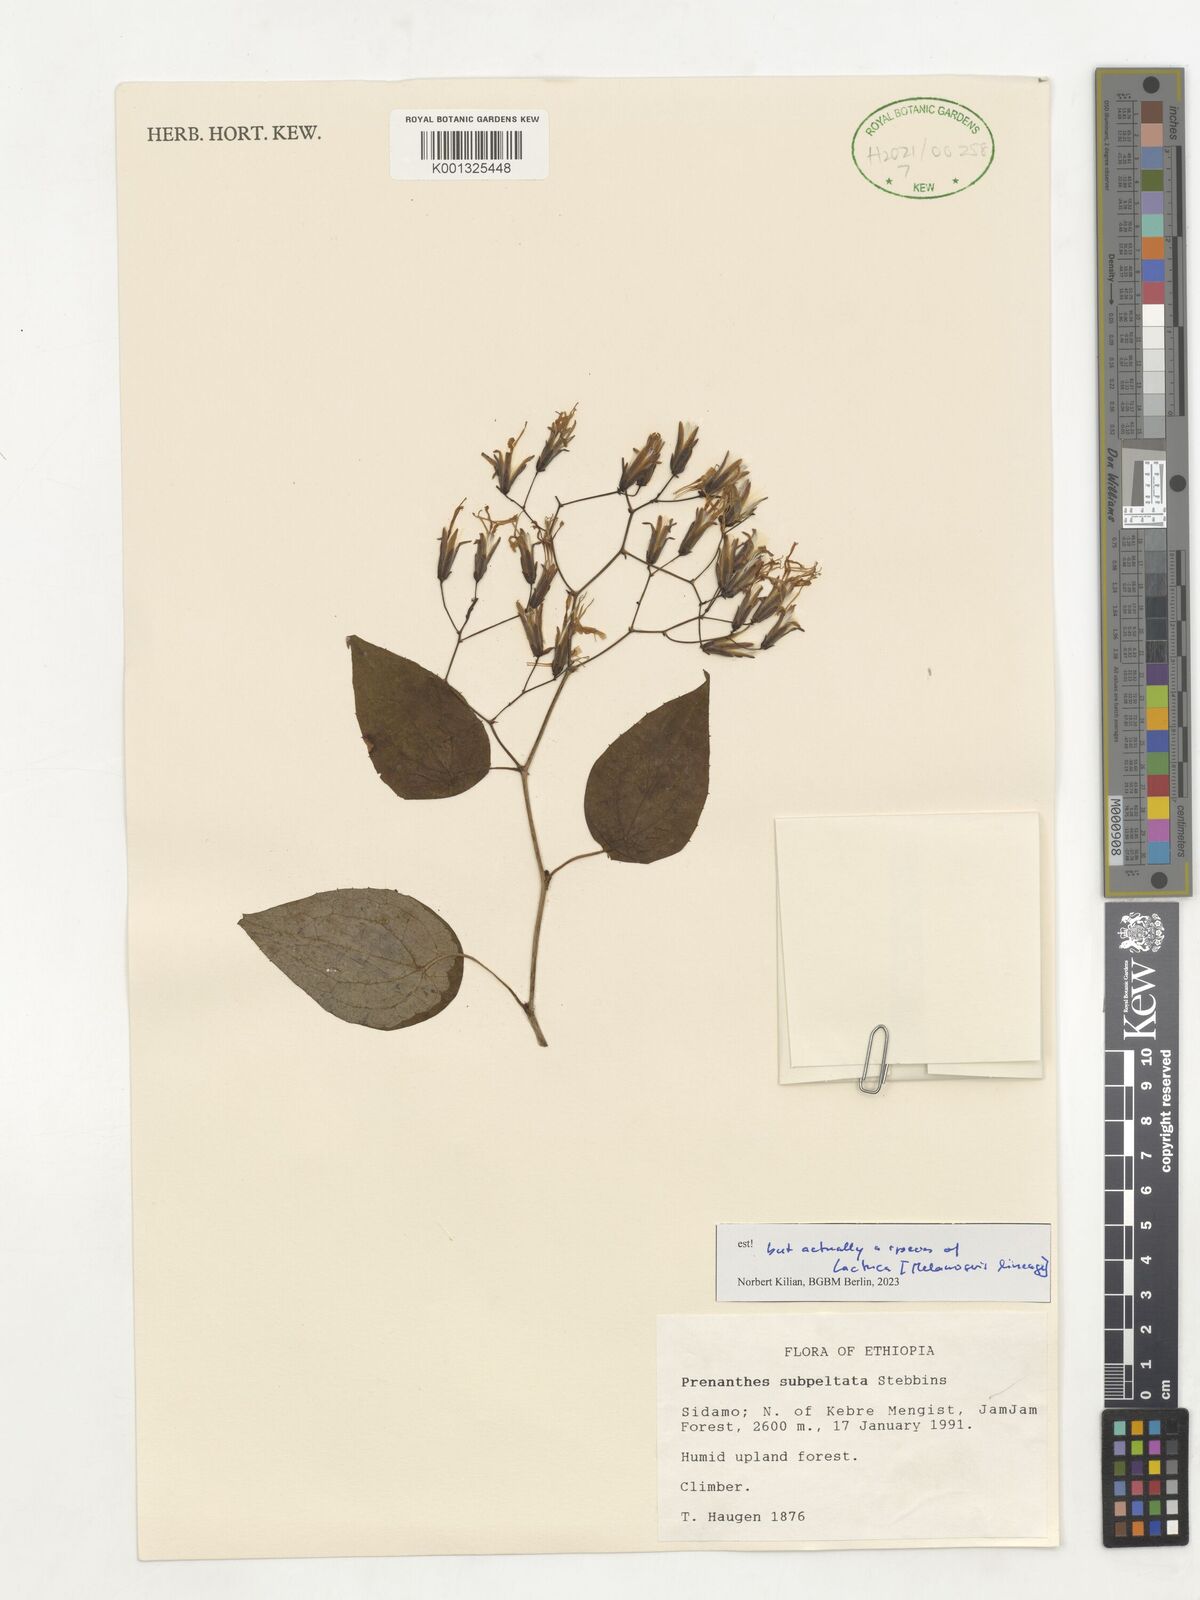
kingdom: Plantae
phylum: Tracheophyta
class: Magnoliopsida
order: Asterales
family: Asteraceae
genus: Prenanthes
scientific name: Prenanthes subpeltata
